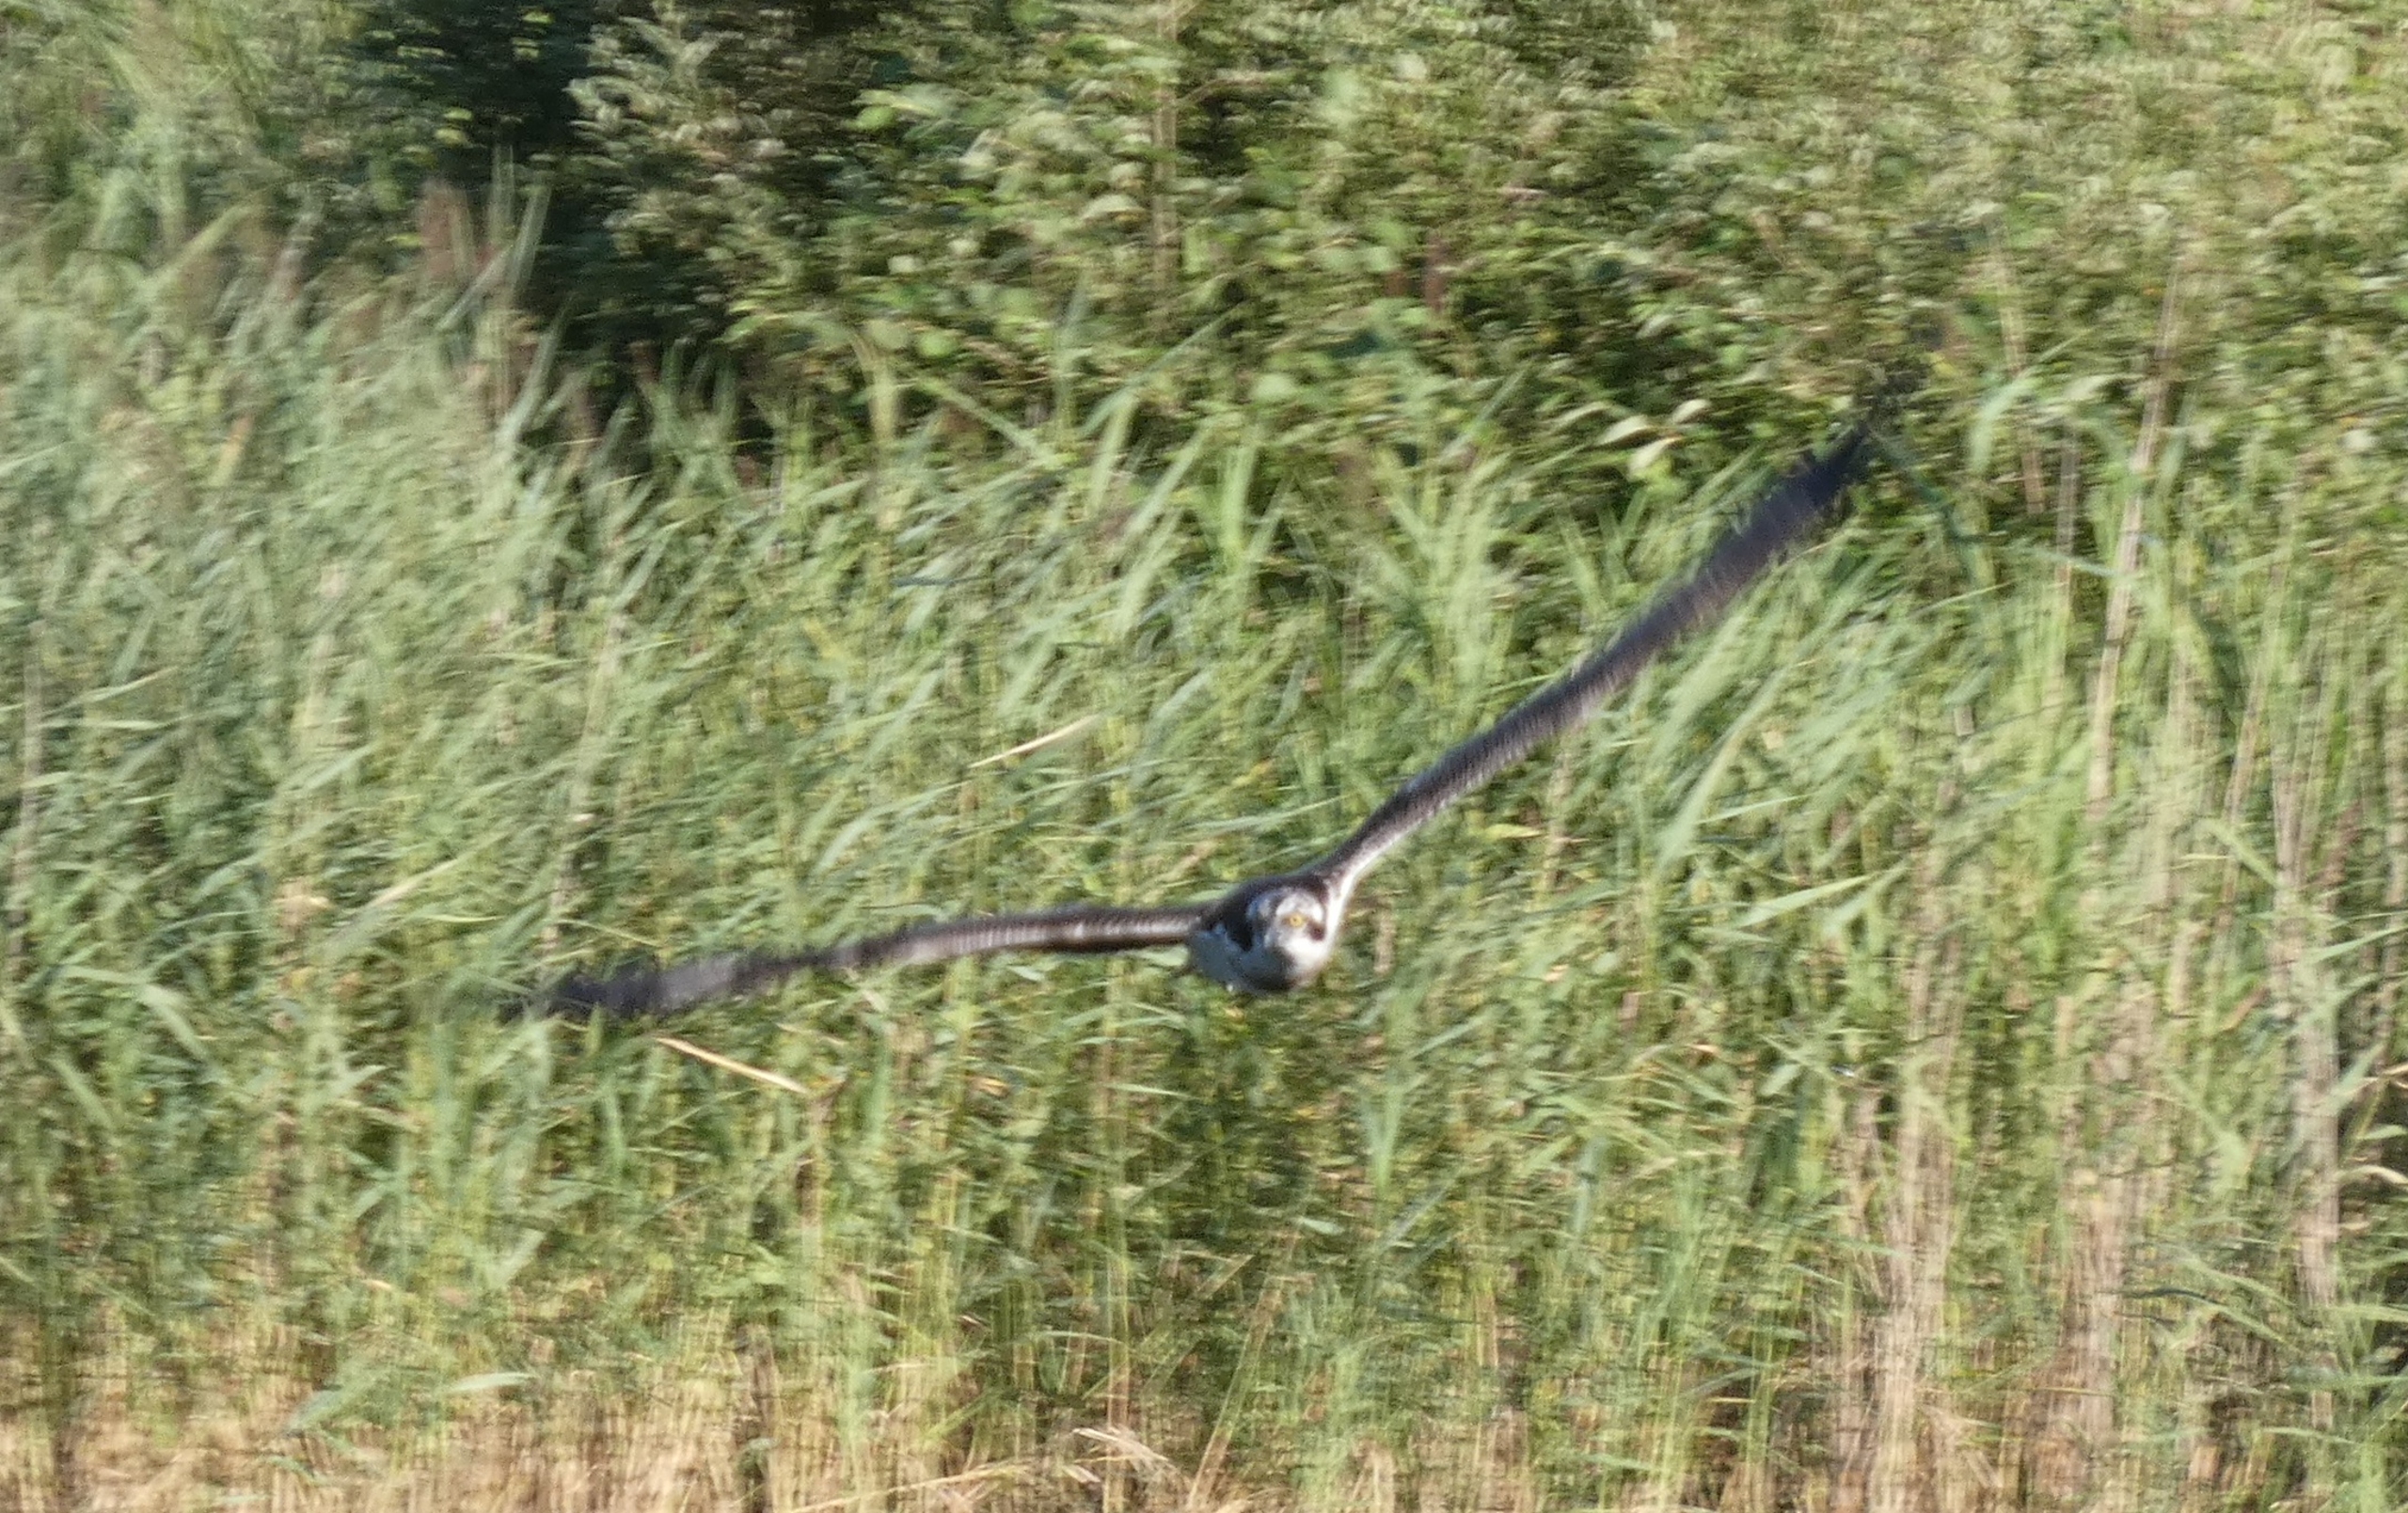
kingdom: Animalia
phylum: Chordata
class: Aves
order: Accipitriformes
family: Pandionidae
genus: Pandion
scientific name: Pandion haliaetus
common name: Fiskeørn
